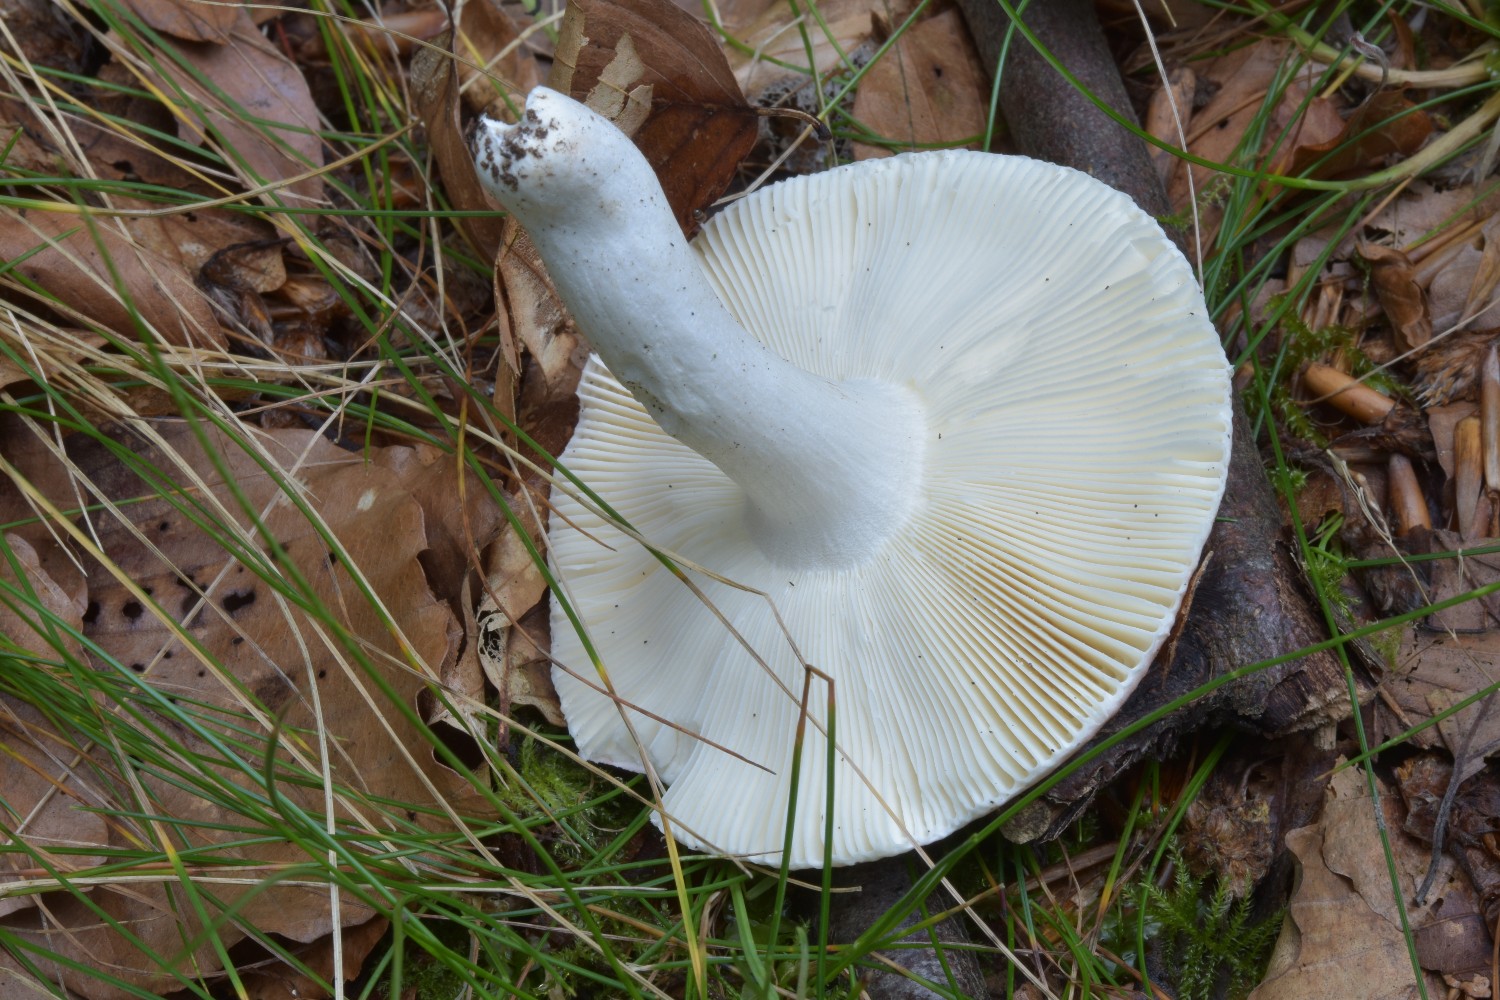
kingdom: Fungi
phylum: Basidiomycota
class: Agaricomycetes
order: Russulales
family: Russulaceae
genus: Russula
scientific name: Russula aurora
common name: rosa skørhat
